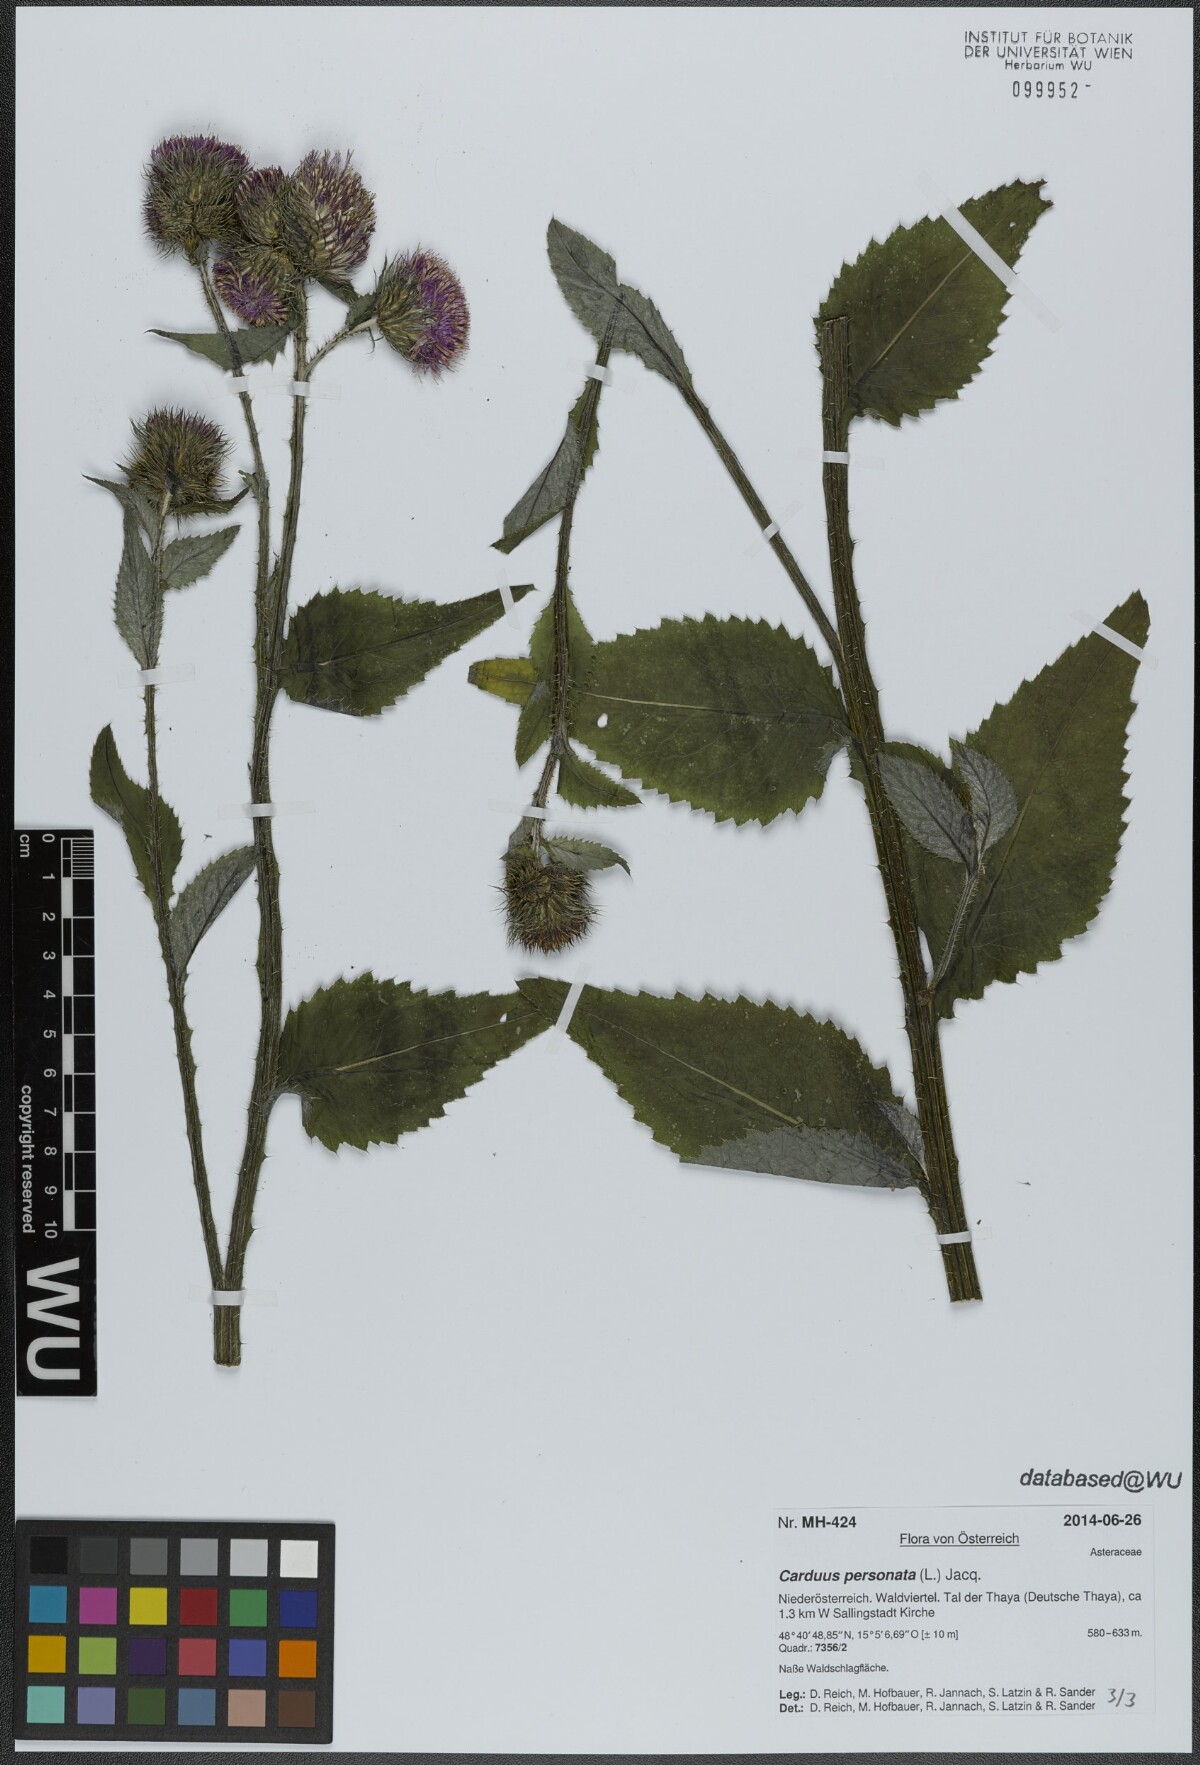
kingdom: Plantae
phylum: Tracheophyta
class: Magnoliopsida
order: Asterales
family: Asteraceae
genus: Carduus
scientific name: Carduus personata
